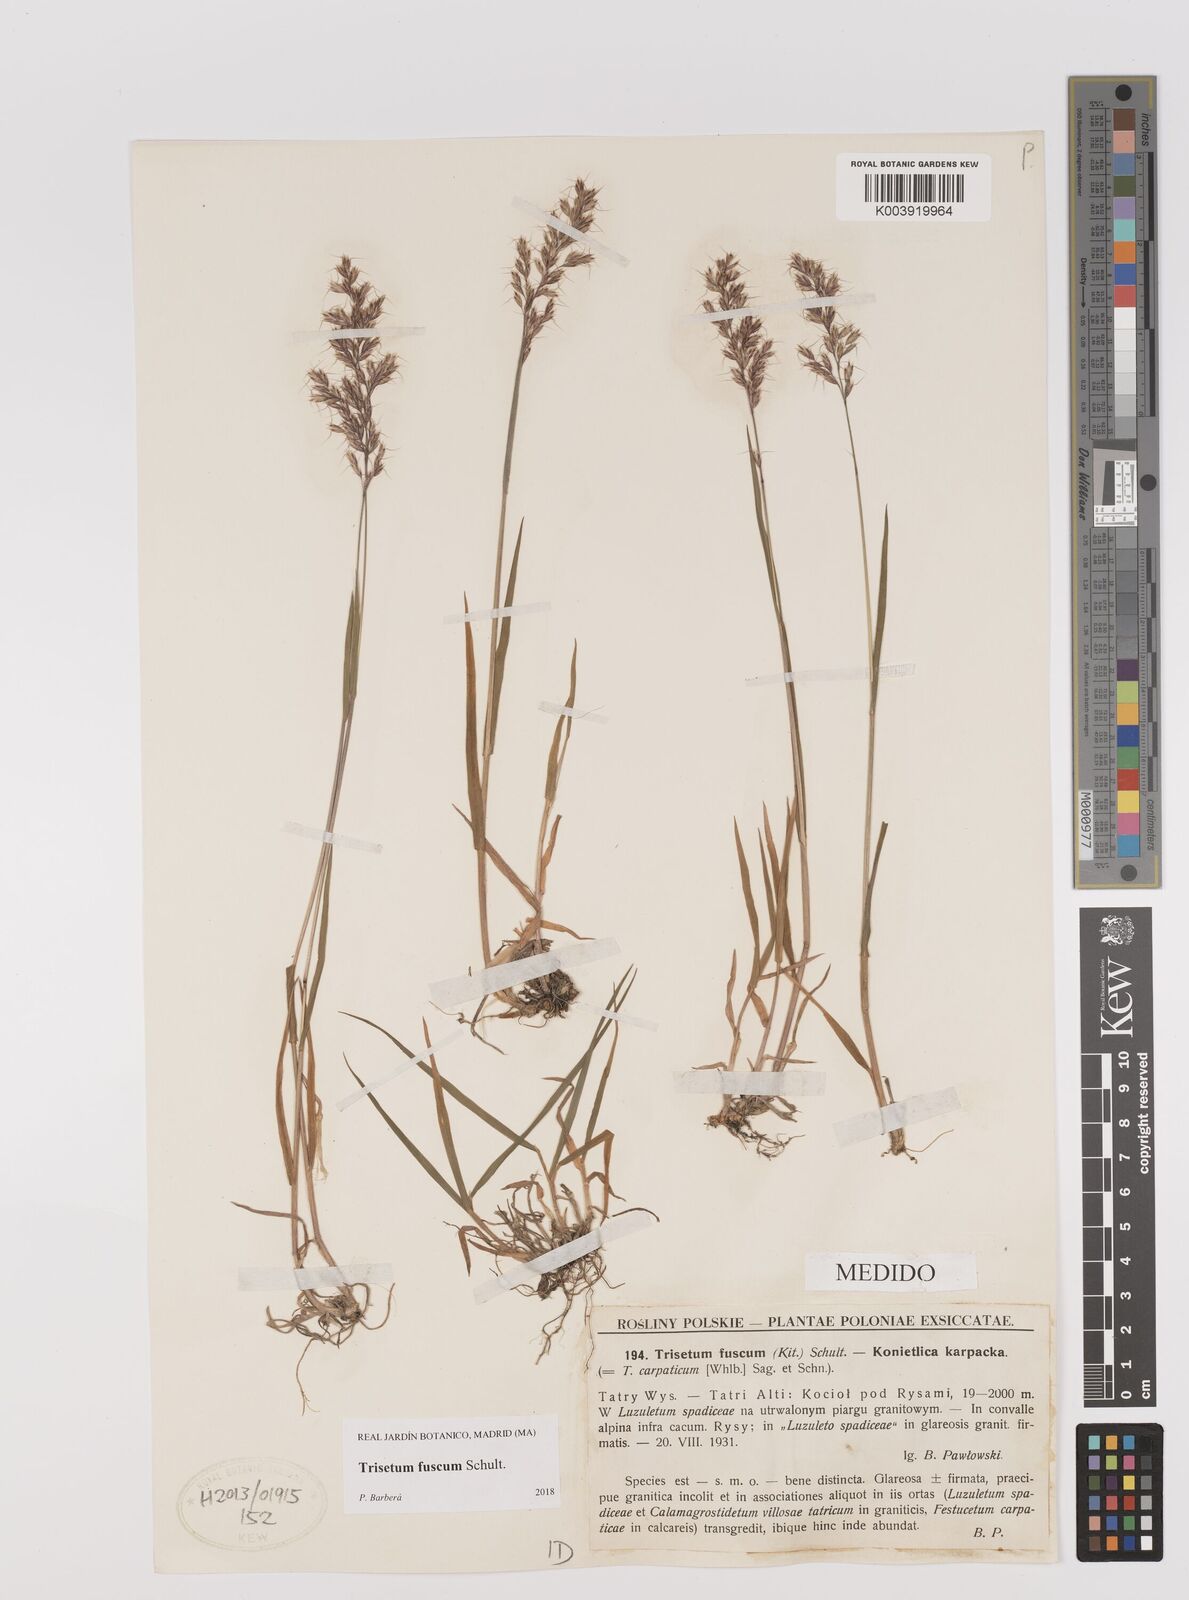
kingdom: Plantae
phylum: Tracheophyta
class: Liliopsida
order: Poales
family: Poaceae
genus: Trisetum
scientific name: Trisetum fuscum
